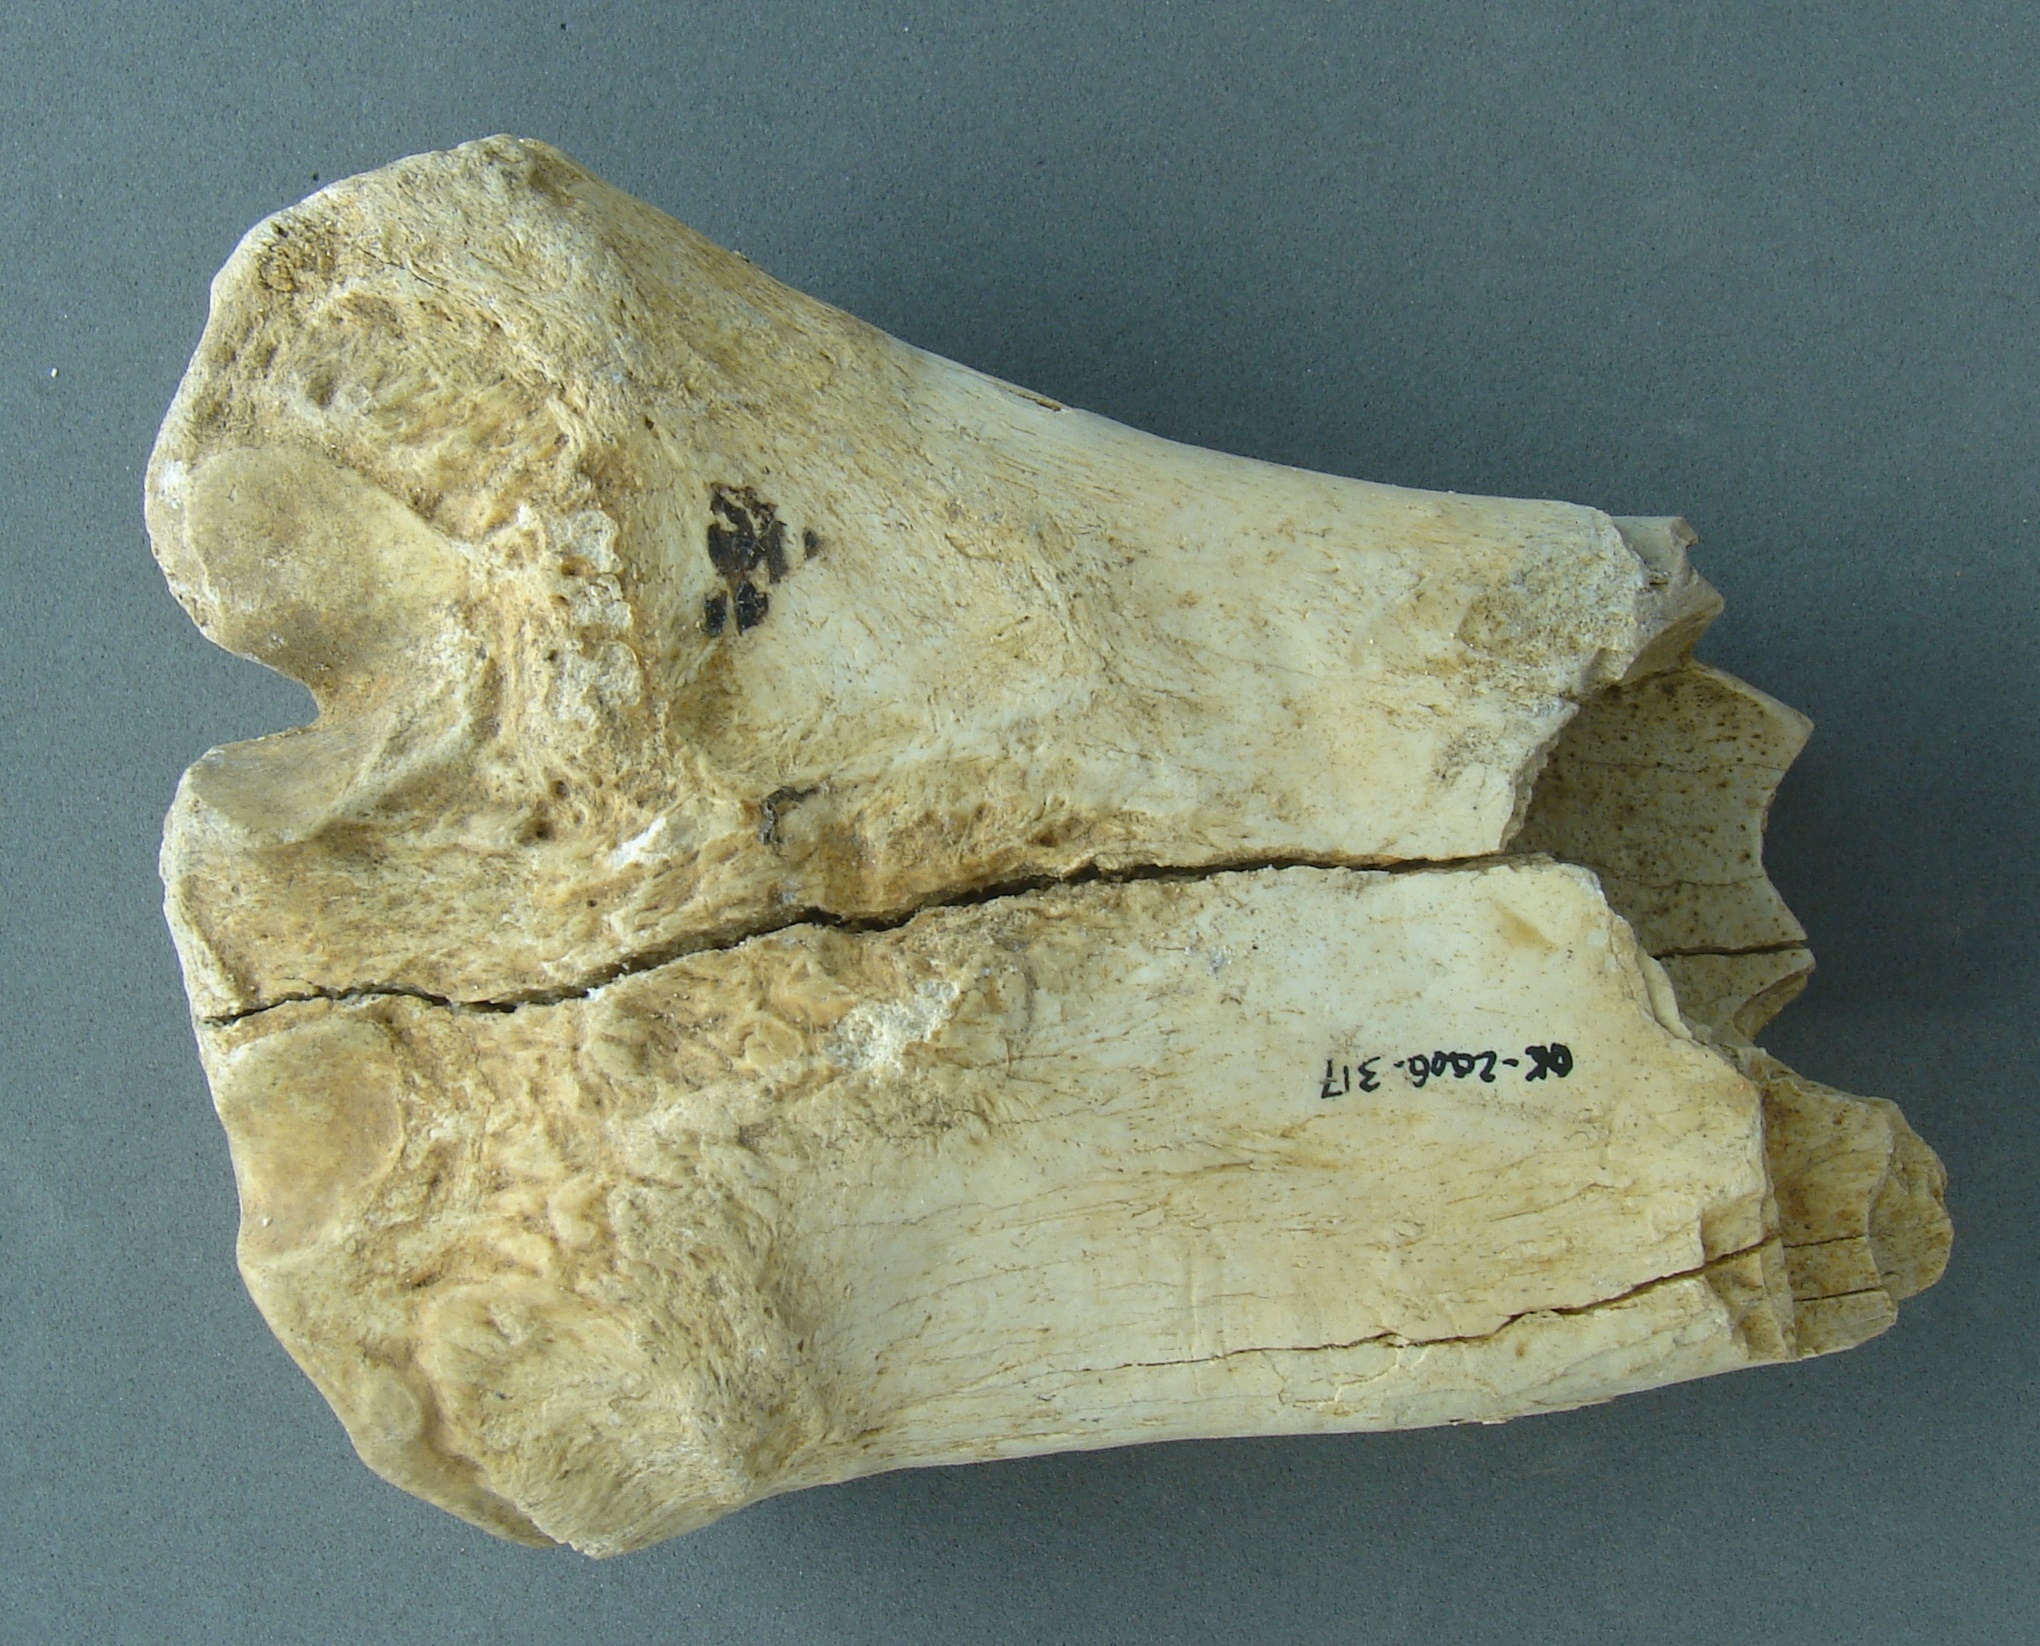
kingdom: Animalia
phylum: Chordata
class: Mammalia
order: Artiodactyla
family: Cervidae
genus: Cervus
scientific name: Cervus elaphus
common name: Red deer
